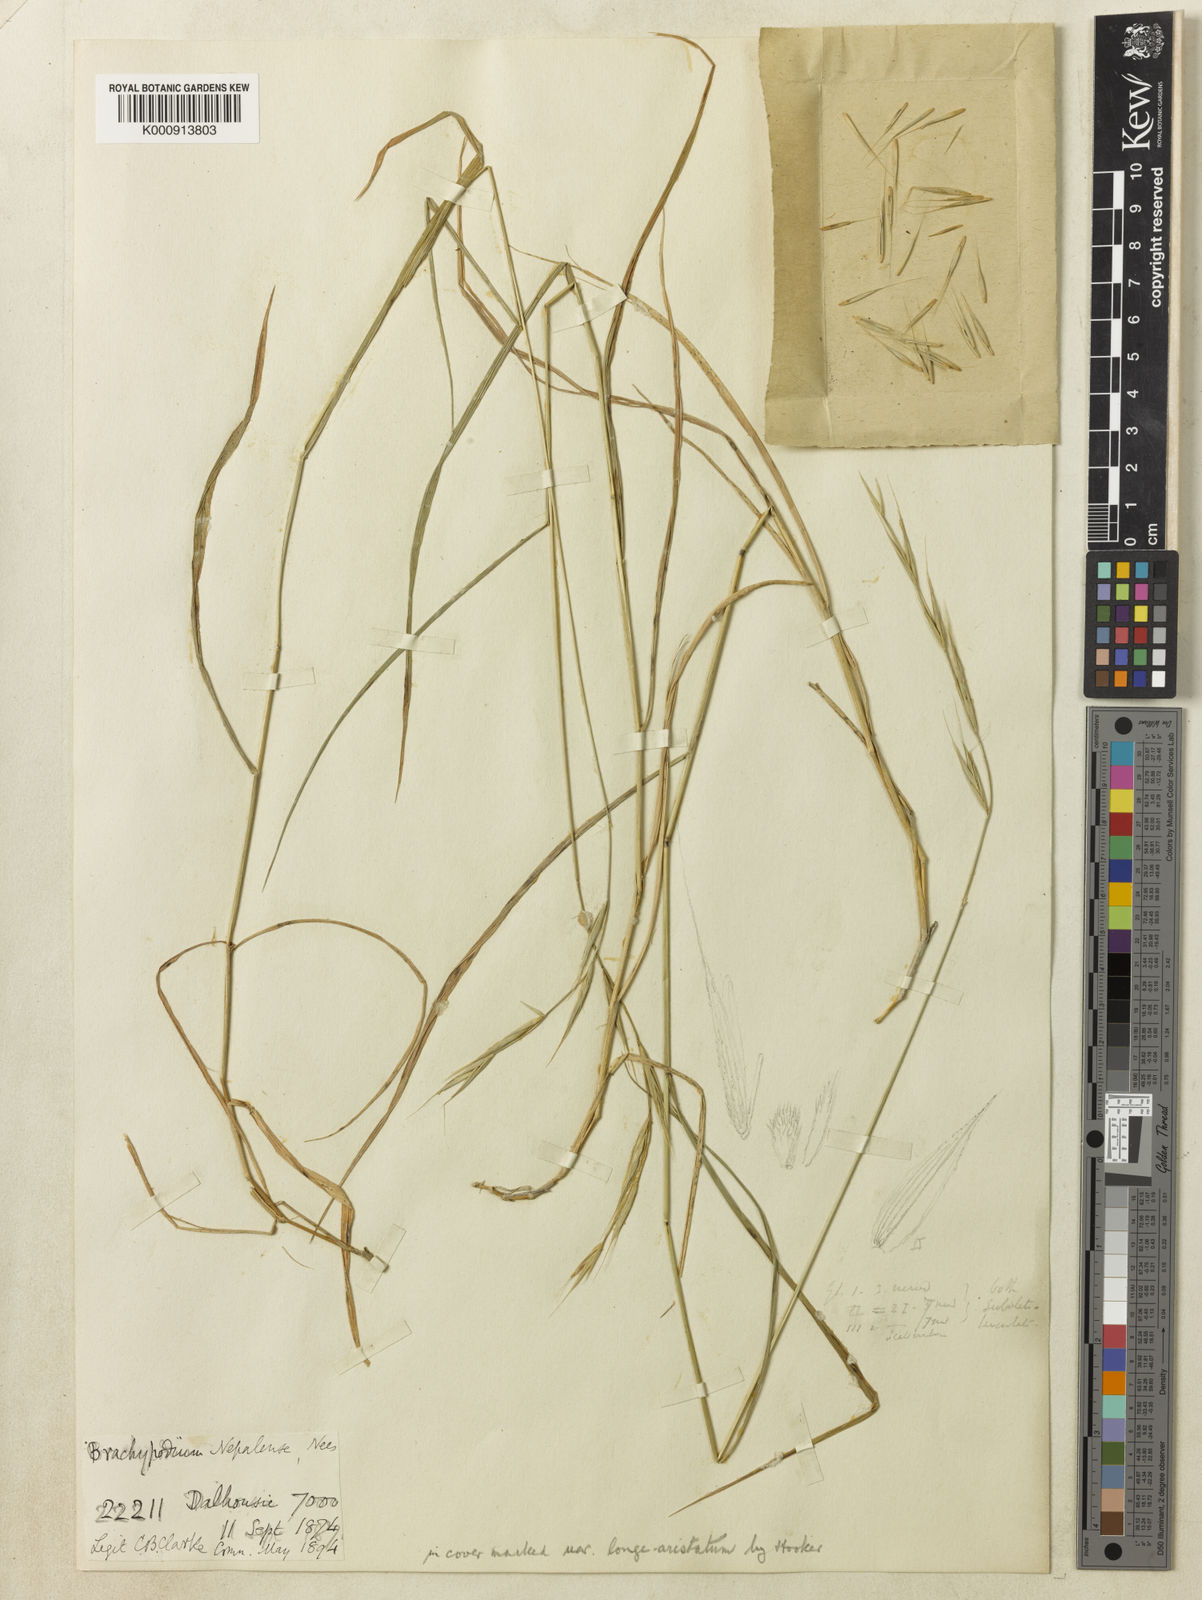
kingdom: Plantae
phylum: Tracheophyta
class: Liliopsida
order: Poales
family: Poaceae
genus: Brachypodium
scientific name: Brachypodium sylvaticum
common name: False-brome
